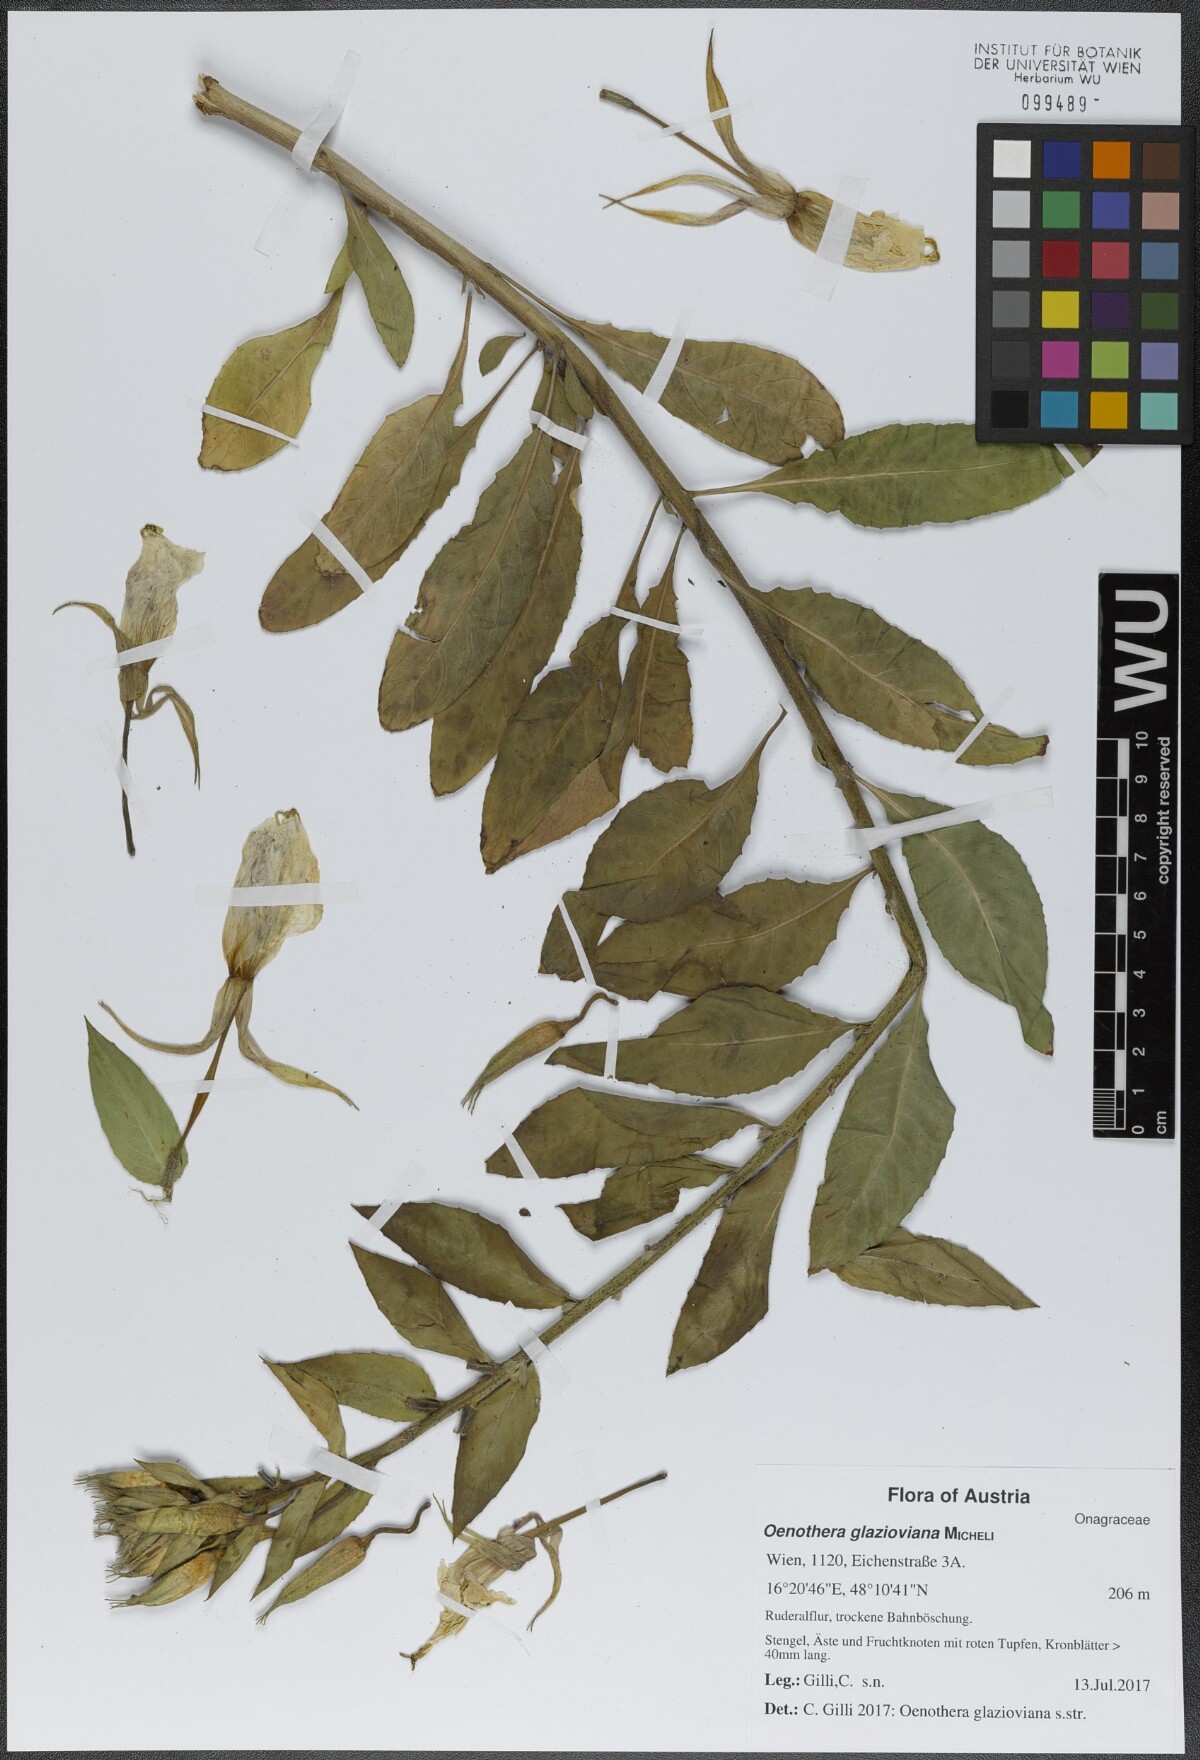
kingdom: Plantae
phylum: Tracheophyta
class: Magnoliopsida
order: Myrtales
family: Onagraceae
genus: Oenothera
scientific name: Oenothera glazioviana
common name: Large-flowered evening-primrose
